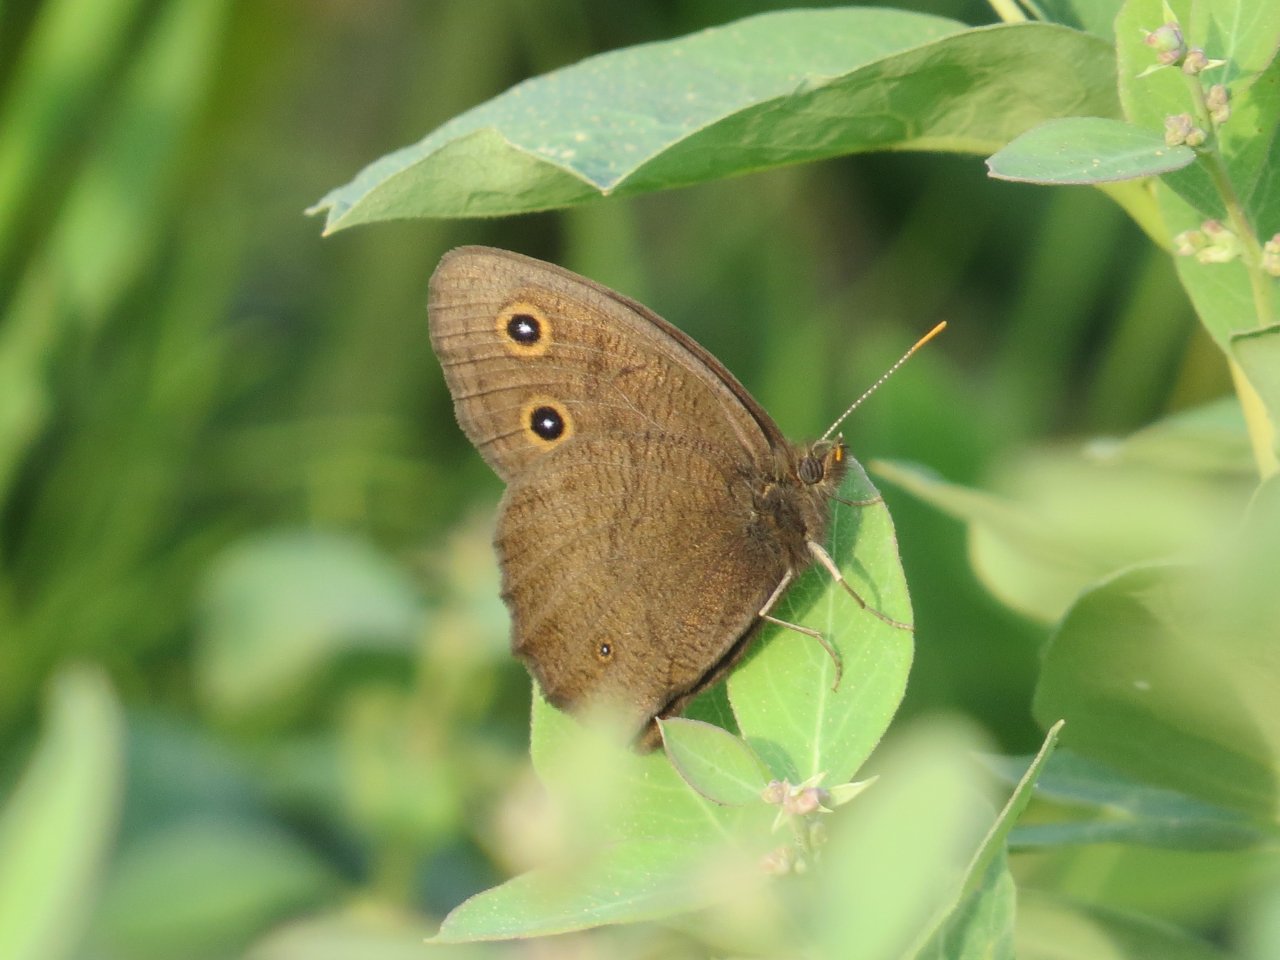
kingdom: Animalia
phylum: Arthropoda
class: Insecta
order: Lepidoptera
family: Nymphalidae
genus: Cercyonis
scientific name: Cercyonis pegala
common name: Common Wood-Nymph
